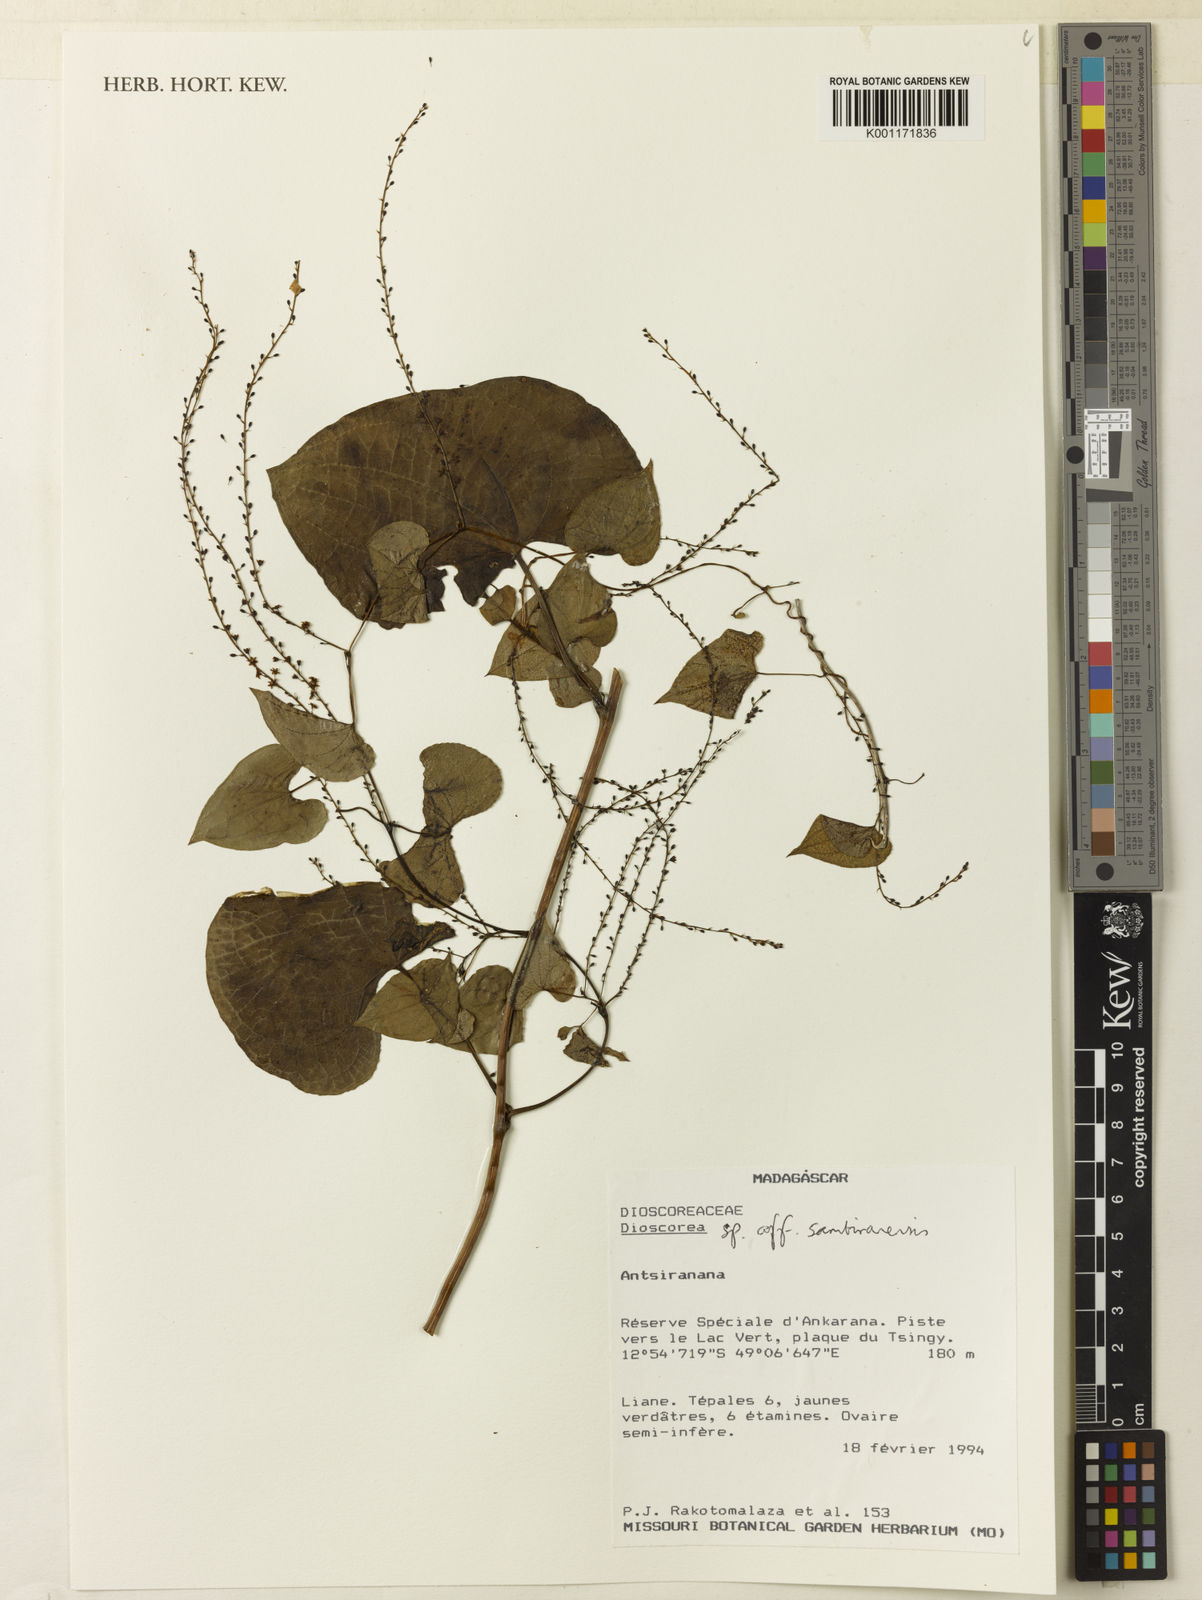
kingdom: Plantae
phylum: Tracheophyta
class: Liliopsida
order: Dioscoreales
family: Dioscoreaceae
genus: Dioscorea
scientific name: Dioscorea sambiranensis
